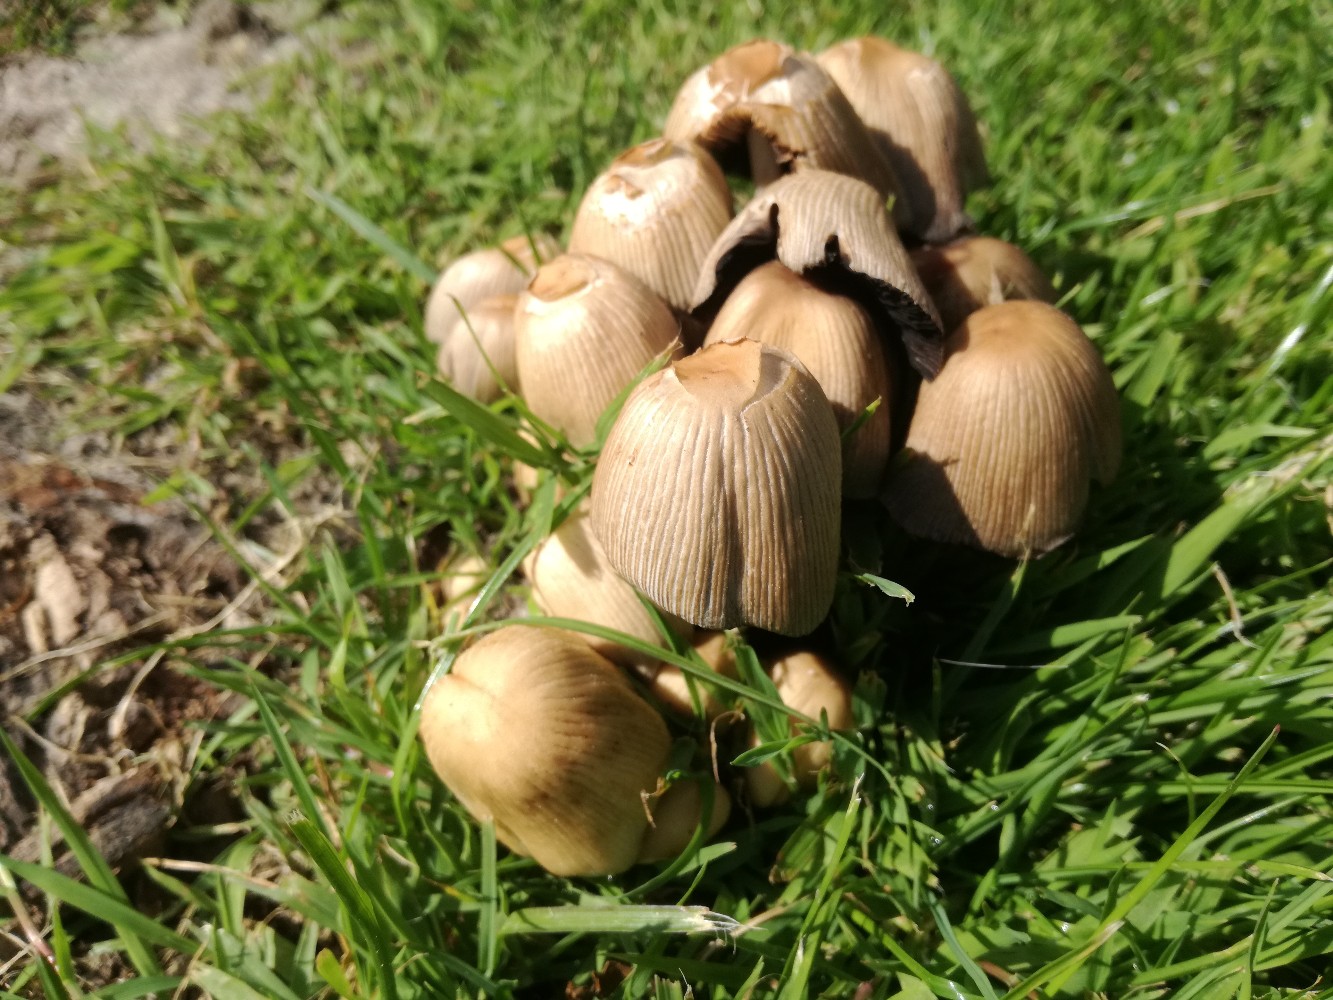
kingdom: Fungi
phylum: Basidiomycota
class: Agaricomycetes
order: Agaricales
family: Psathyrellaceae
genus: Coprinellus
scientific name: Coprinellus micaceus
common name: glimmer-blækhat
